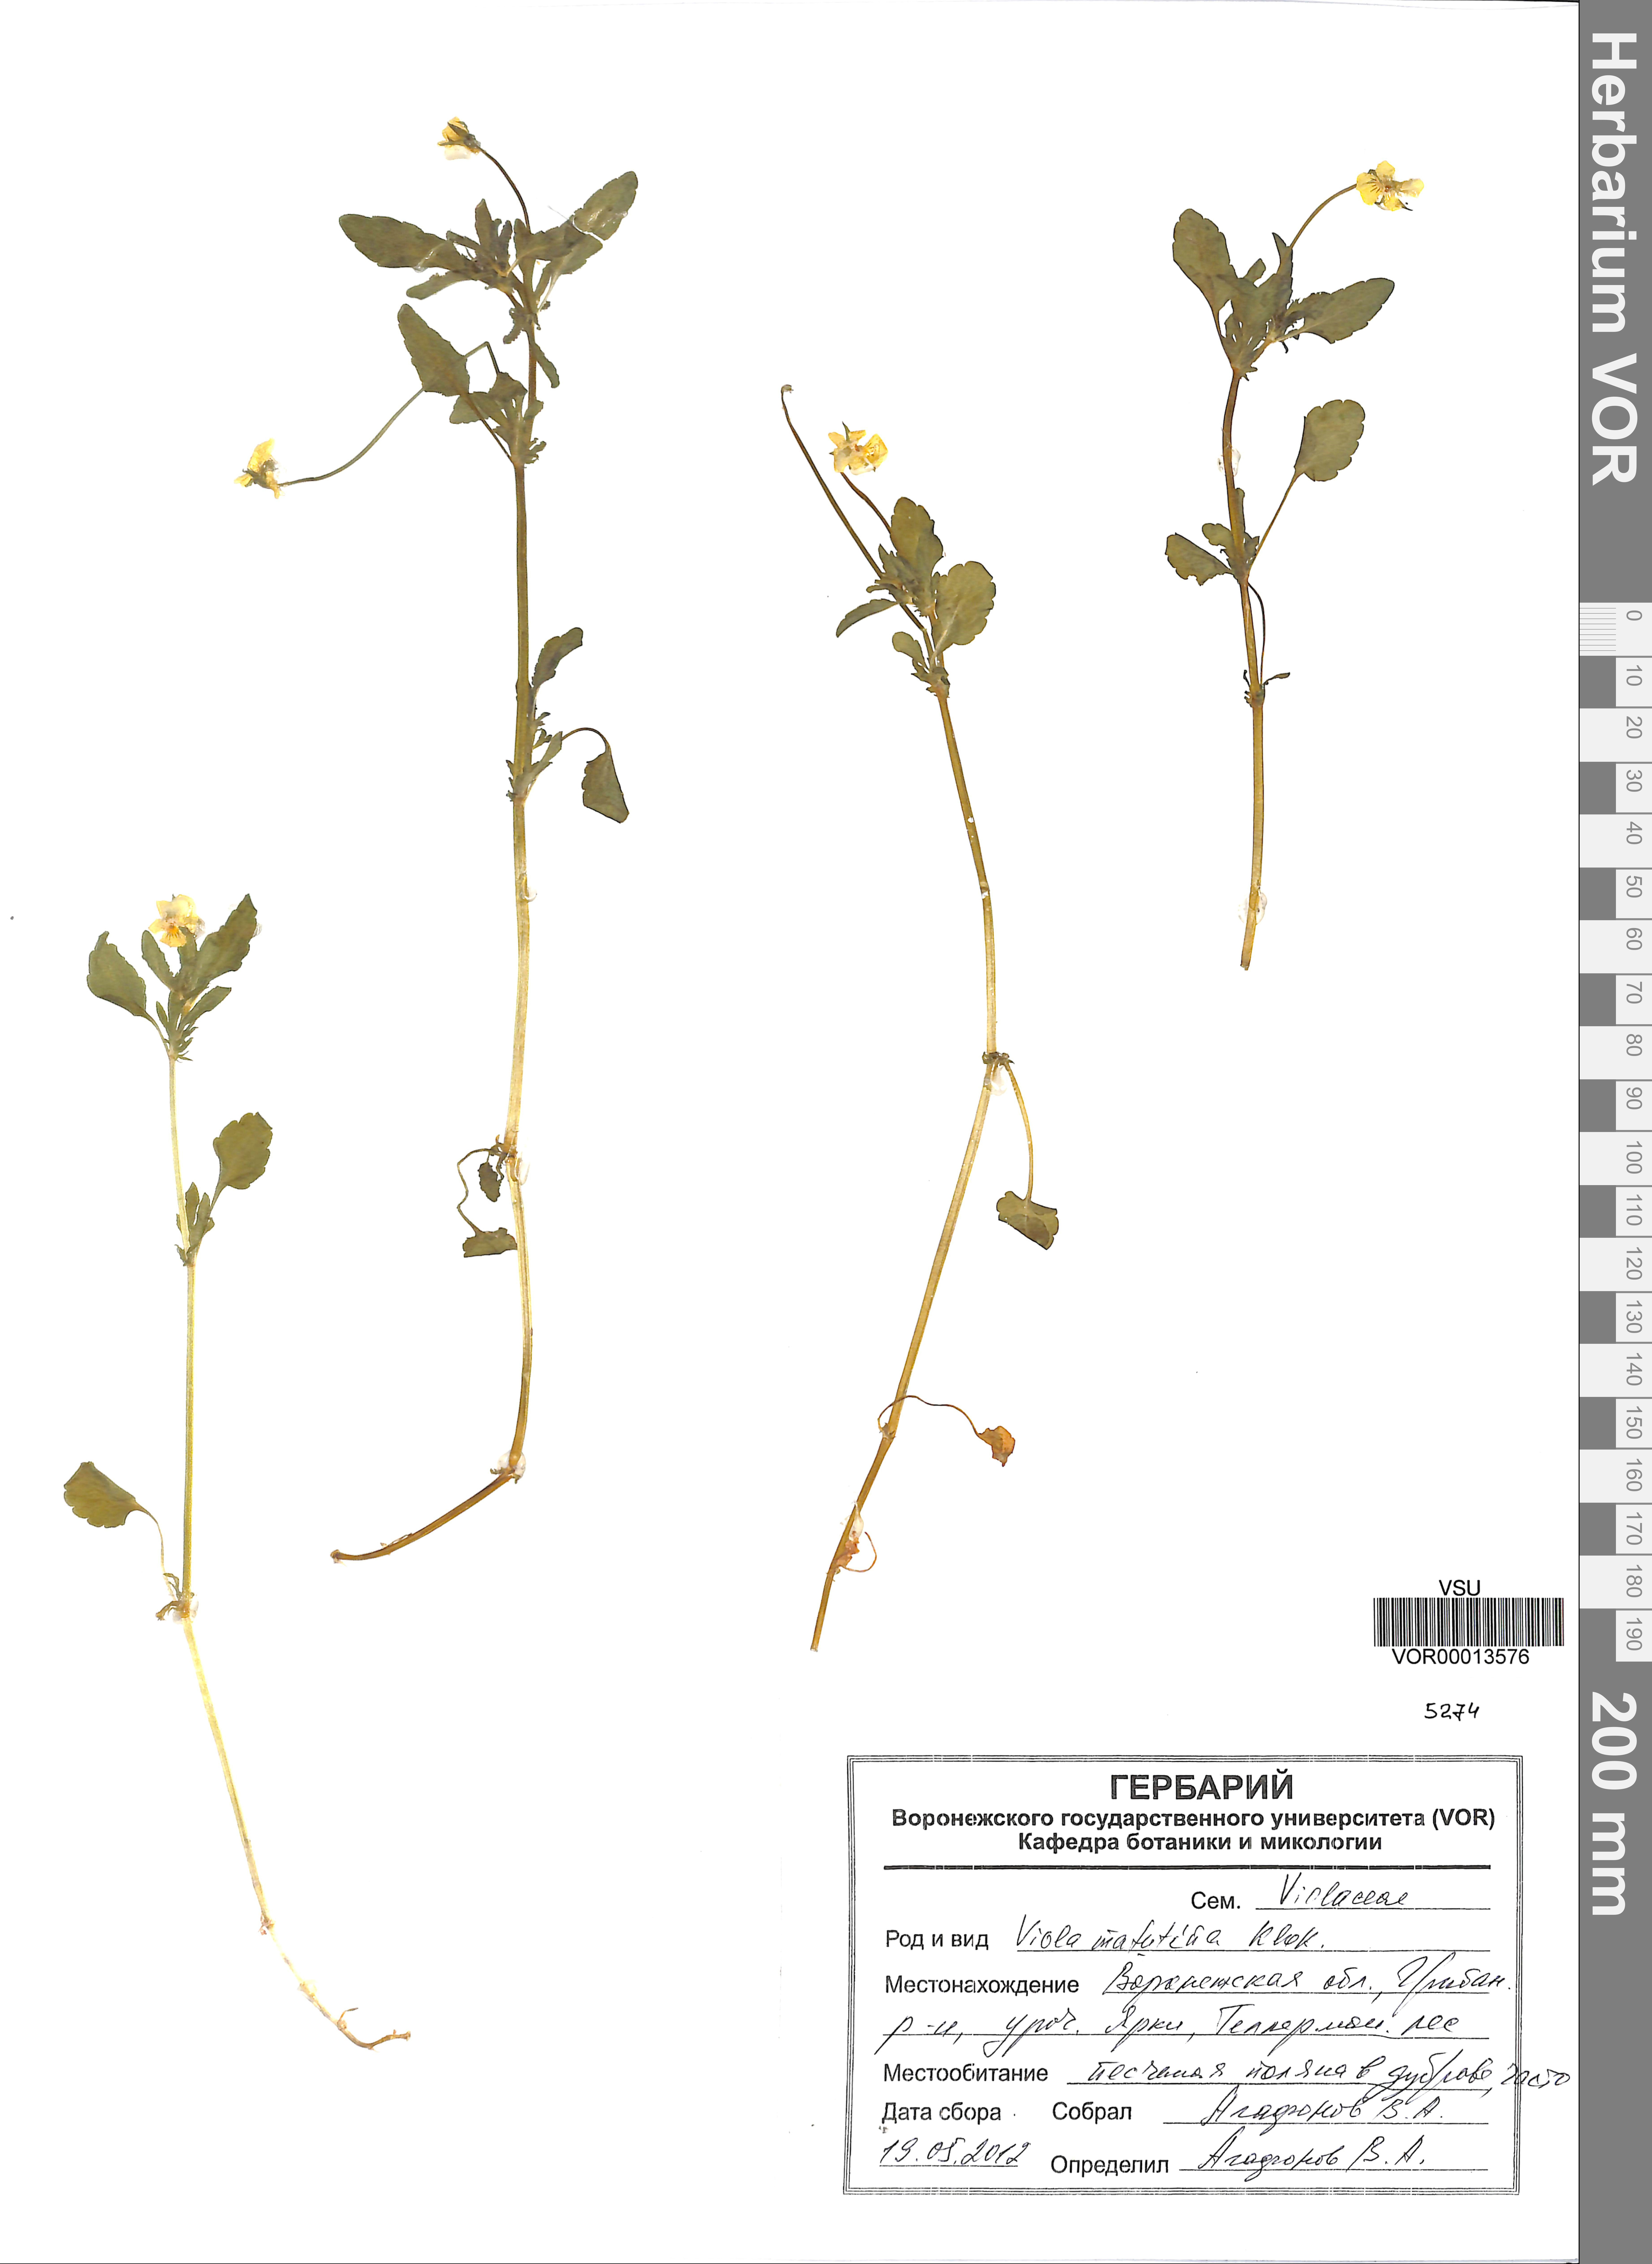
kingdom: Plantae
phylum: Tracheophyta
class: Magnoliopsida
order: Malpighiales
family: Violaceae
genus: Viola
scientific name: Viola tricolor
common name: Pansy
